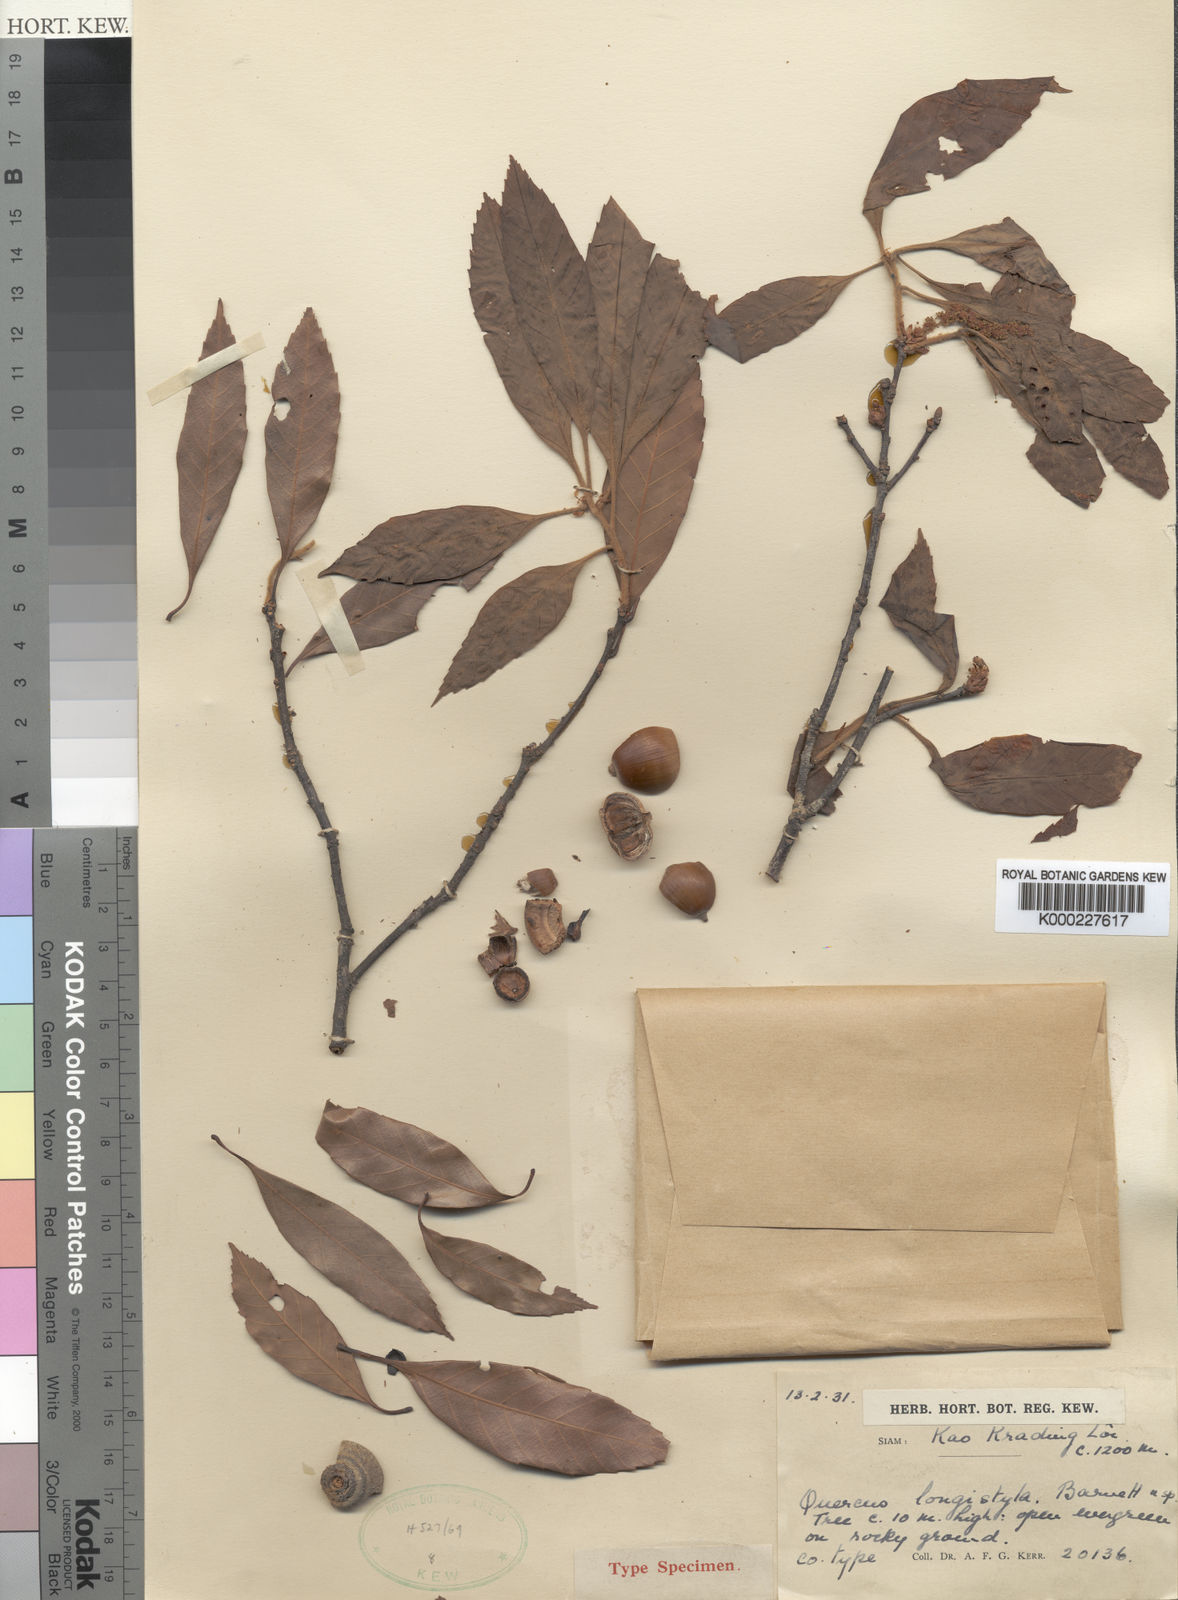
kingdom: Plantae
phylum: Tracheophyta
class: Magnoliopsida
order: Fagales
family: Fagaceae
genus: Quercus
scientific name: Quercus myrsinifolia
